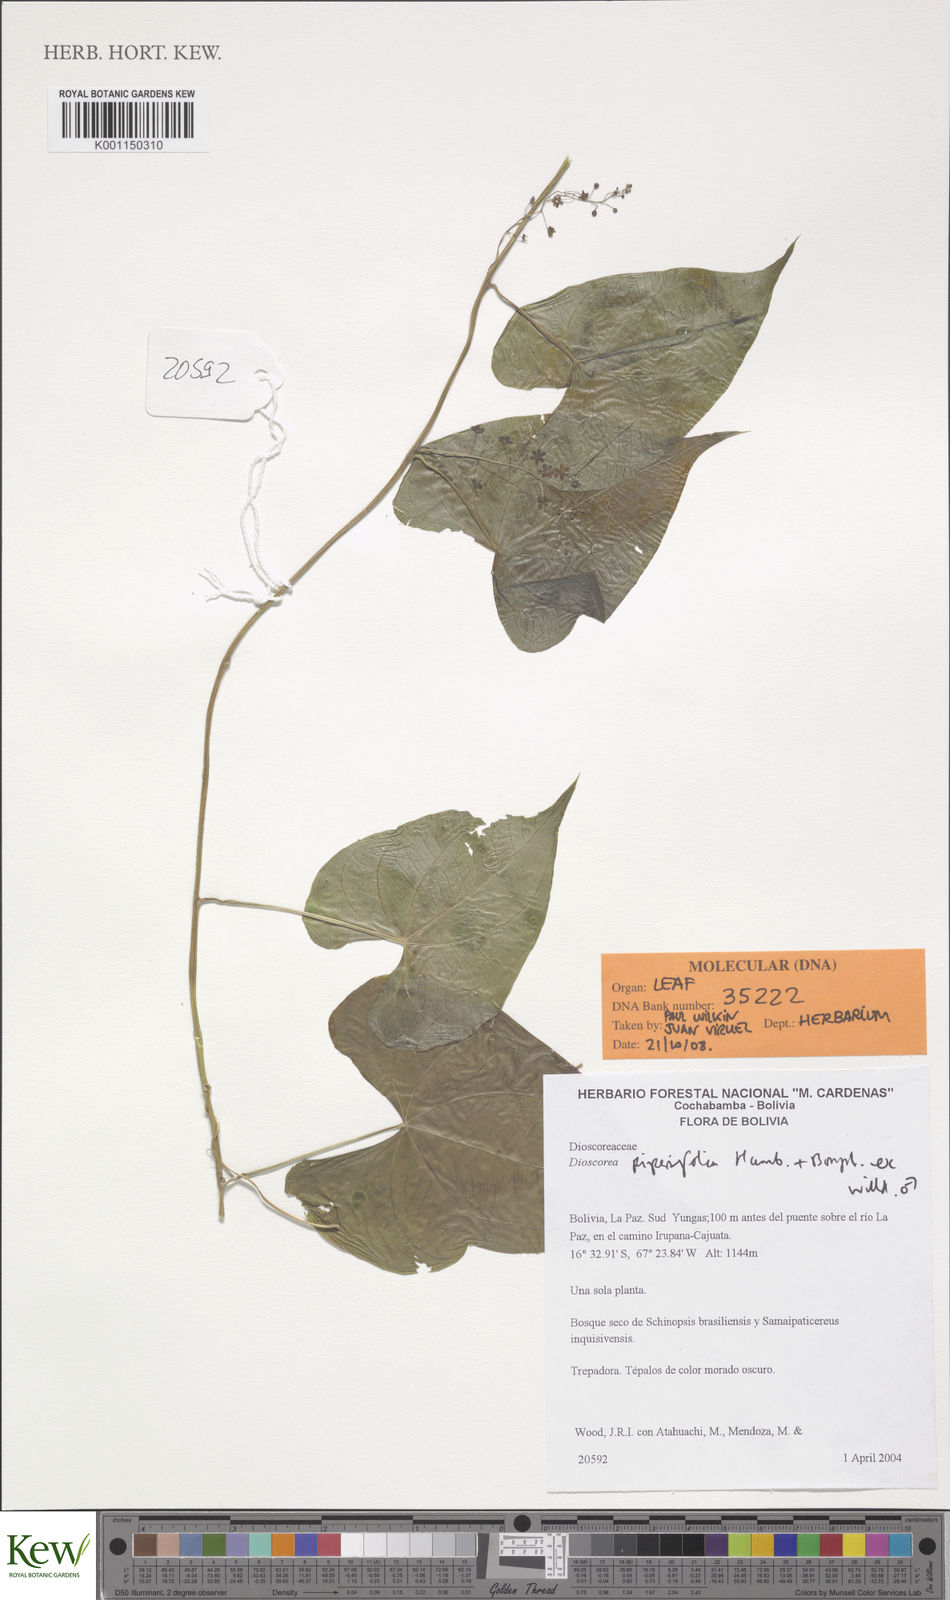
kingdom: Plantae
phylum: Tracheophyta
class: Liliopsida
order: Dioscoreales
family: Dioscoreaceae
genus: Dioscorea
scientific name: Dioscorea piperifolia
